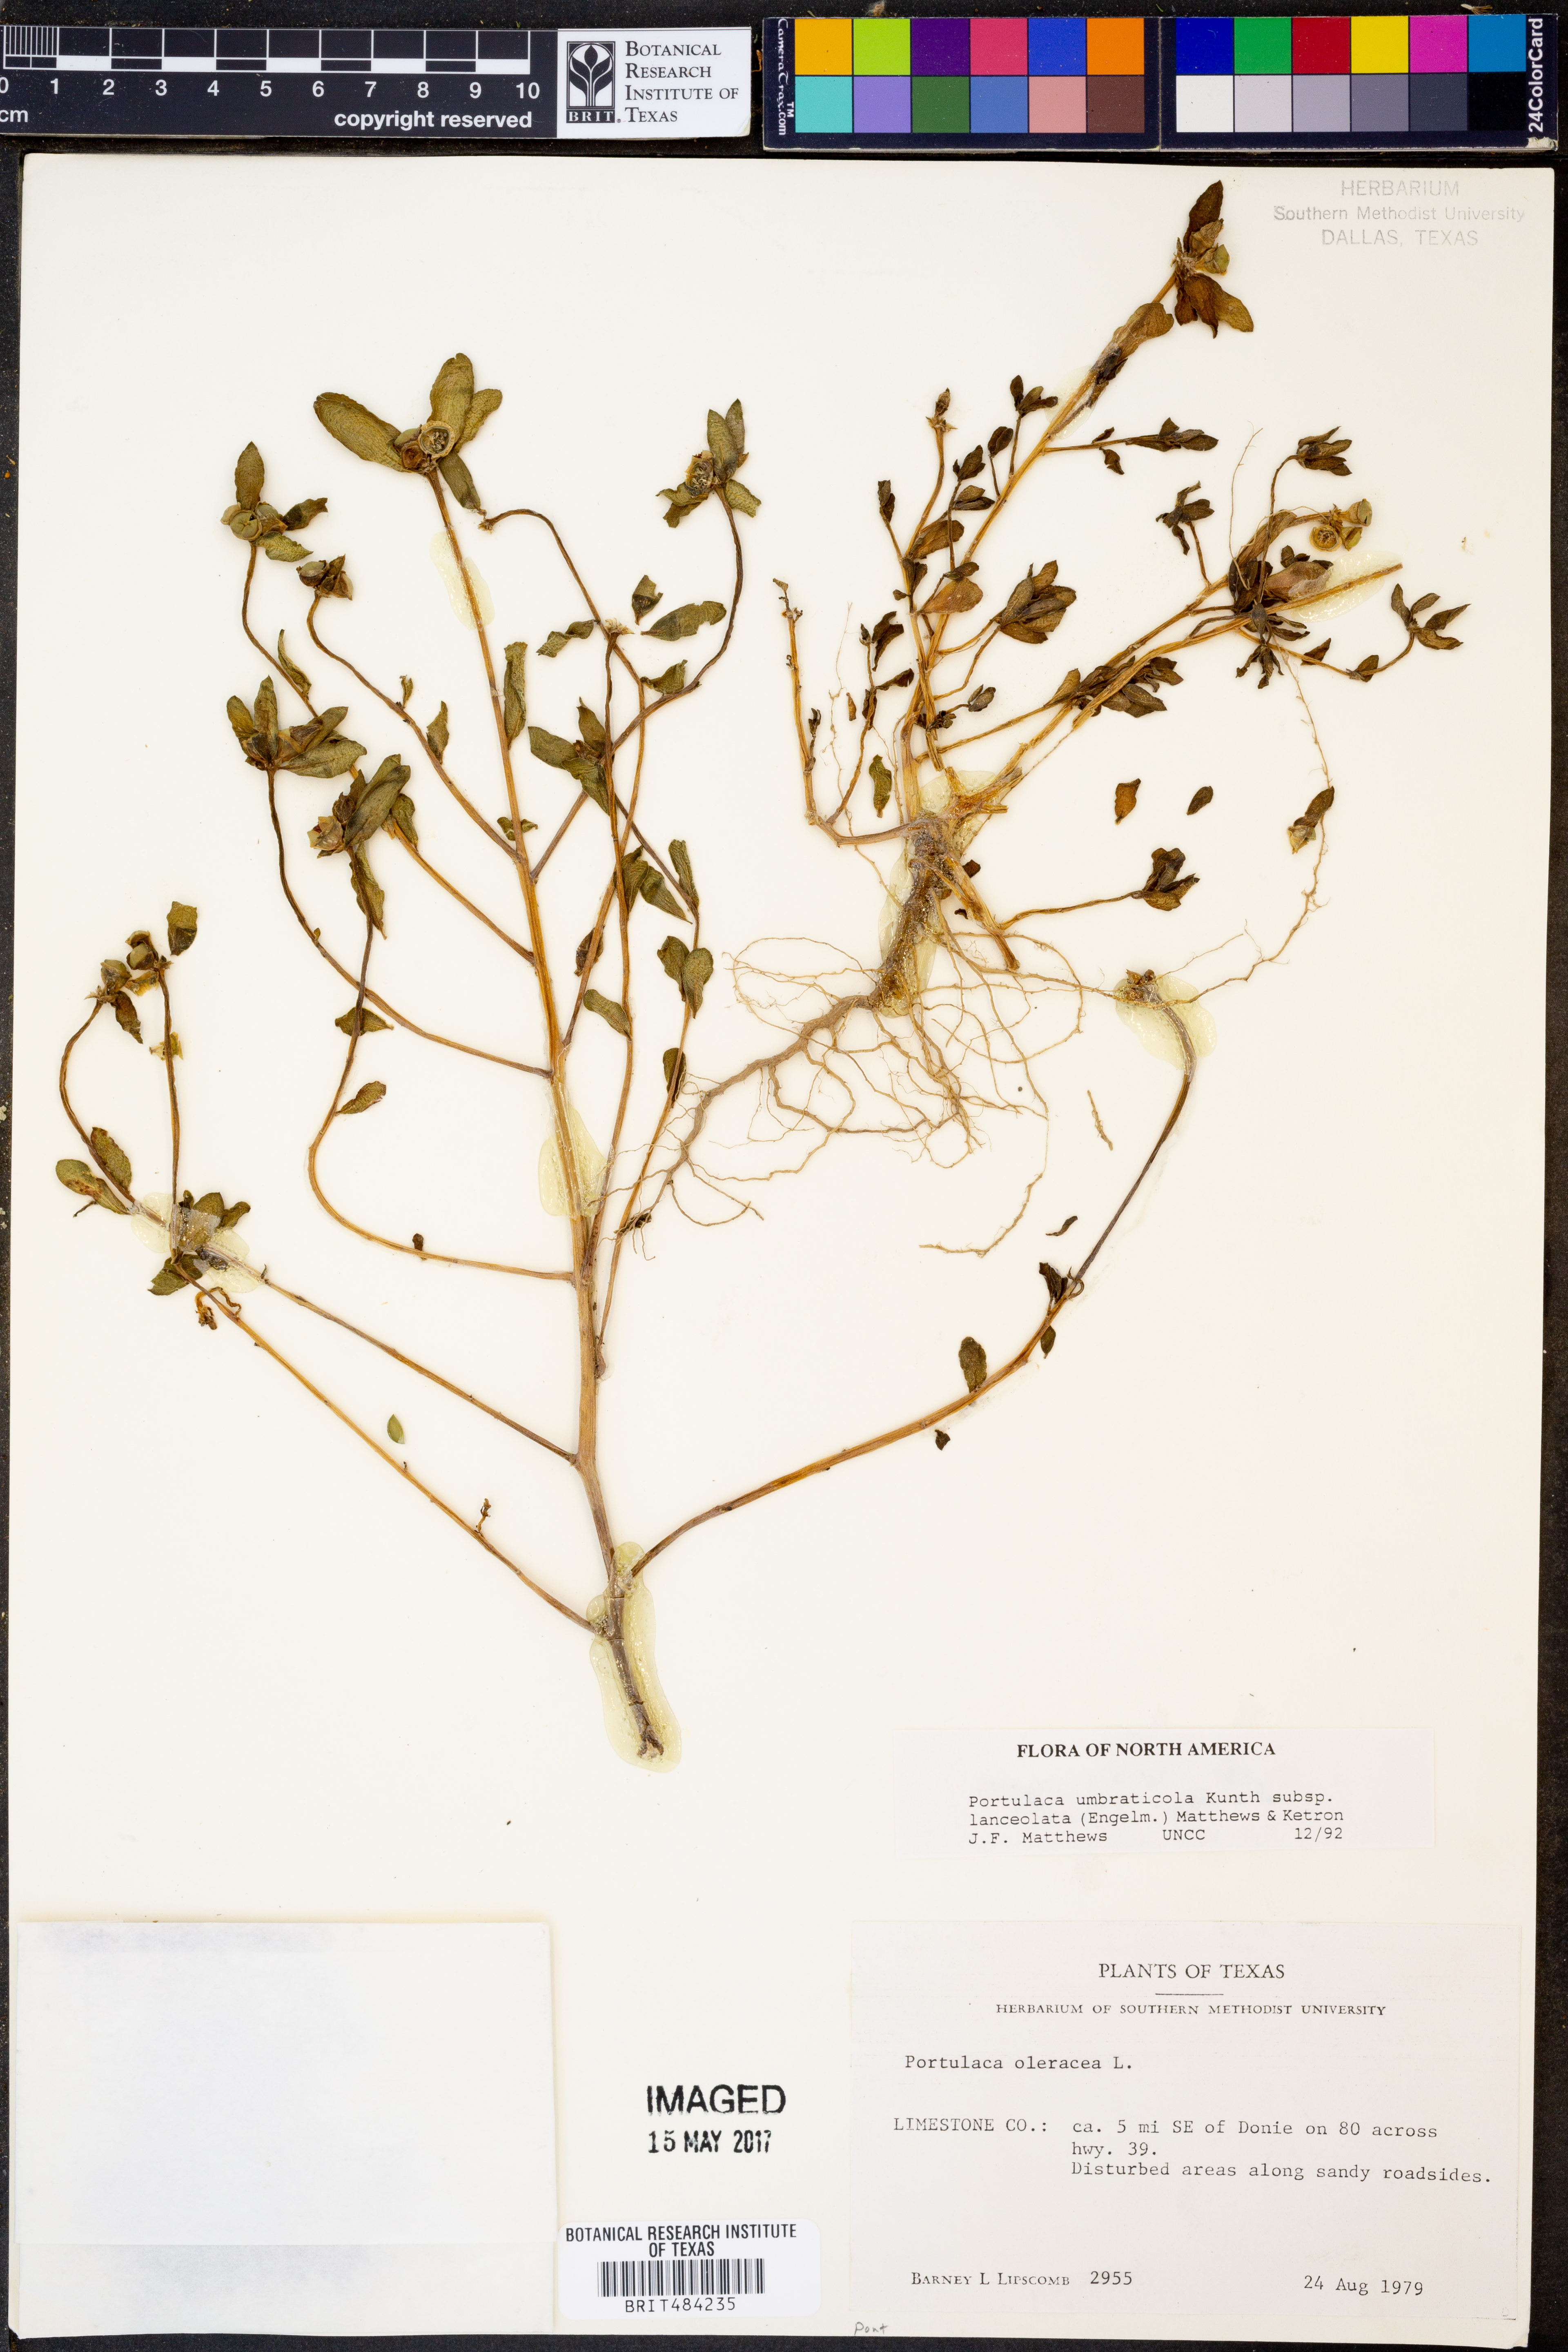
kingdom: Plantae
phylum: Tracheophyta
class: Magnoliopsida
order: Caryophyllales
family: Portulacaceae
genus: Portulaca
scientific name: Portulaca umbraticola
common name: Wingpod purslane
